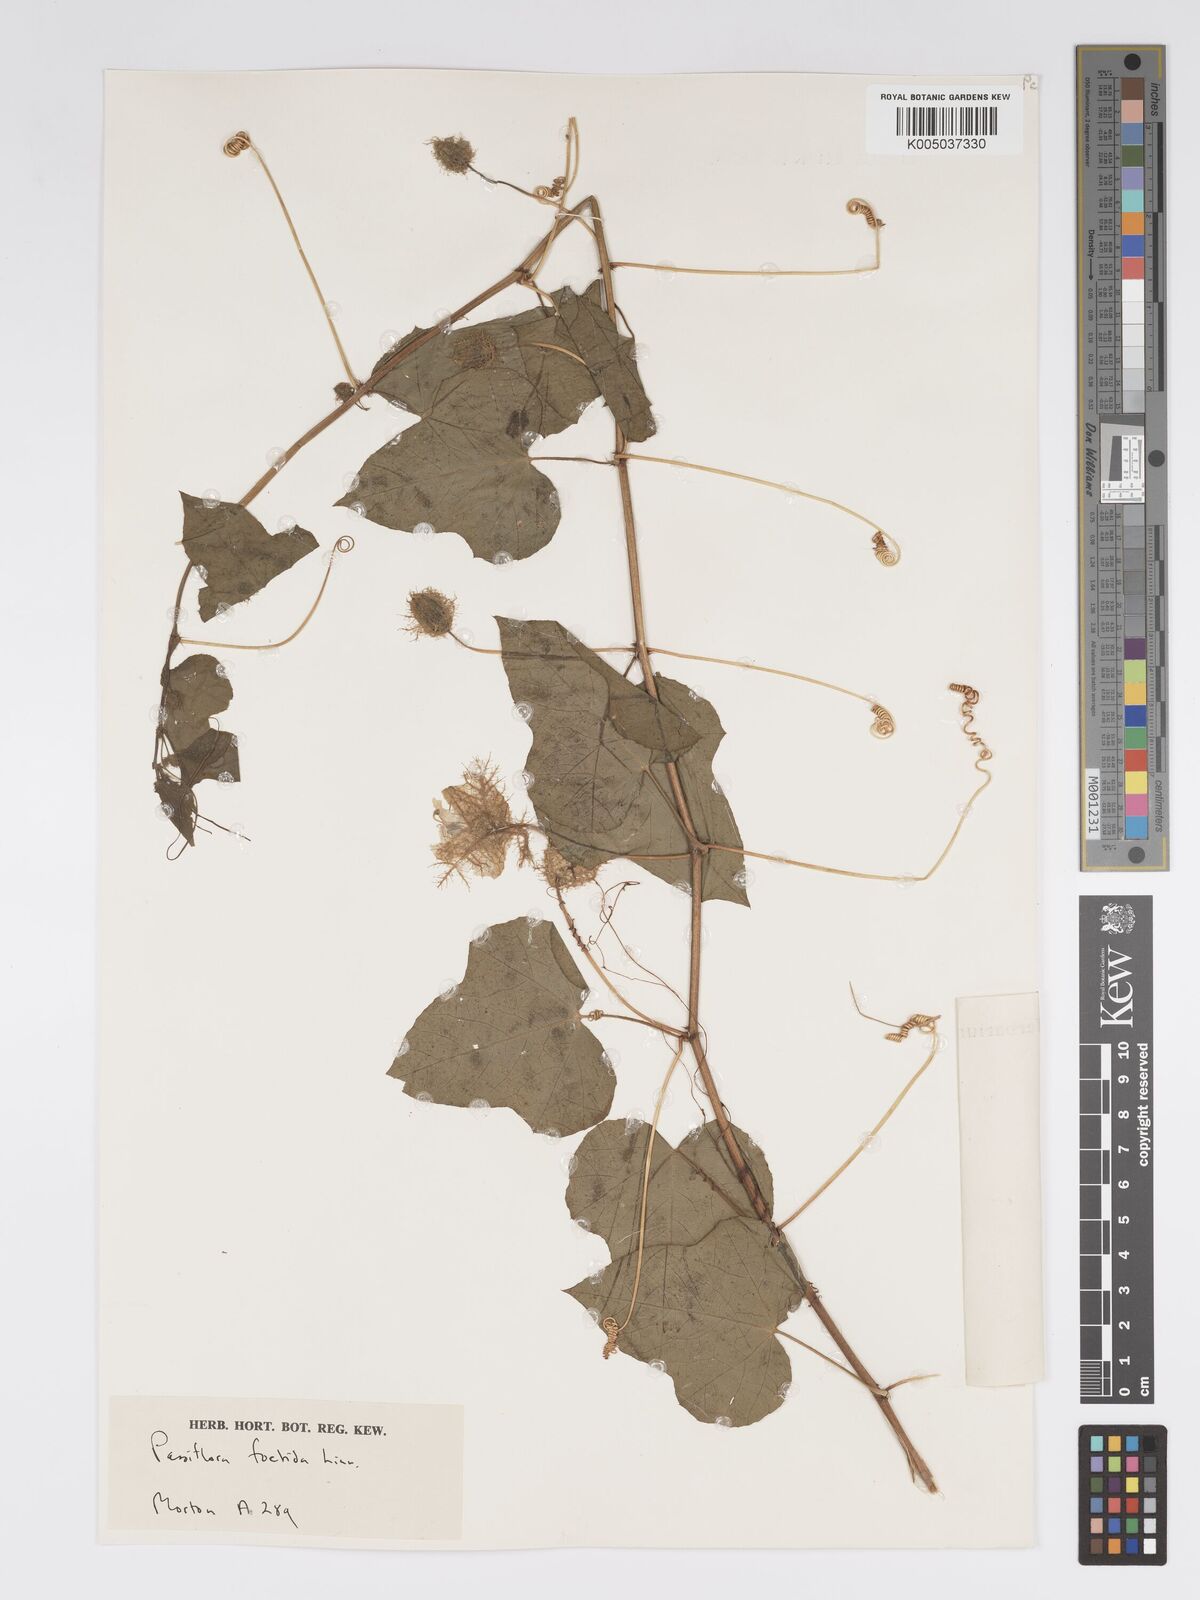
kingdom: Plantae
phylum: Tracheophyta
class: Magnoliopsida
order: Malpighiales
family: Passifloraceae
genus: Passiflora
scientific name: Passiflora foetida
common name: Fetid passionflower
